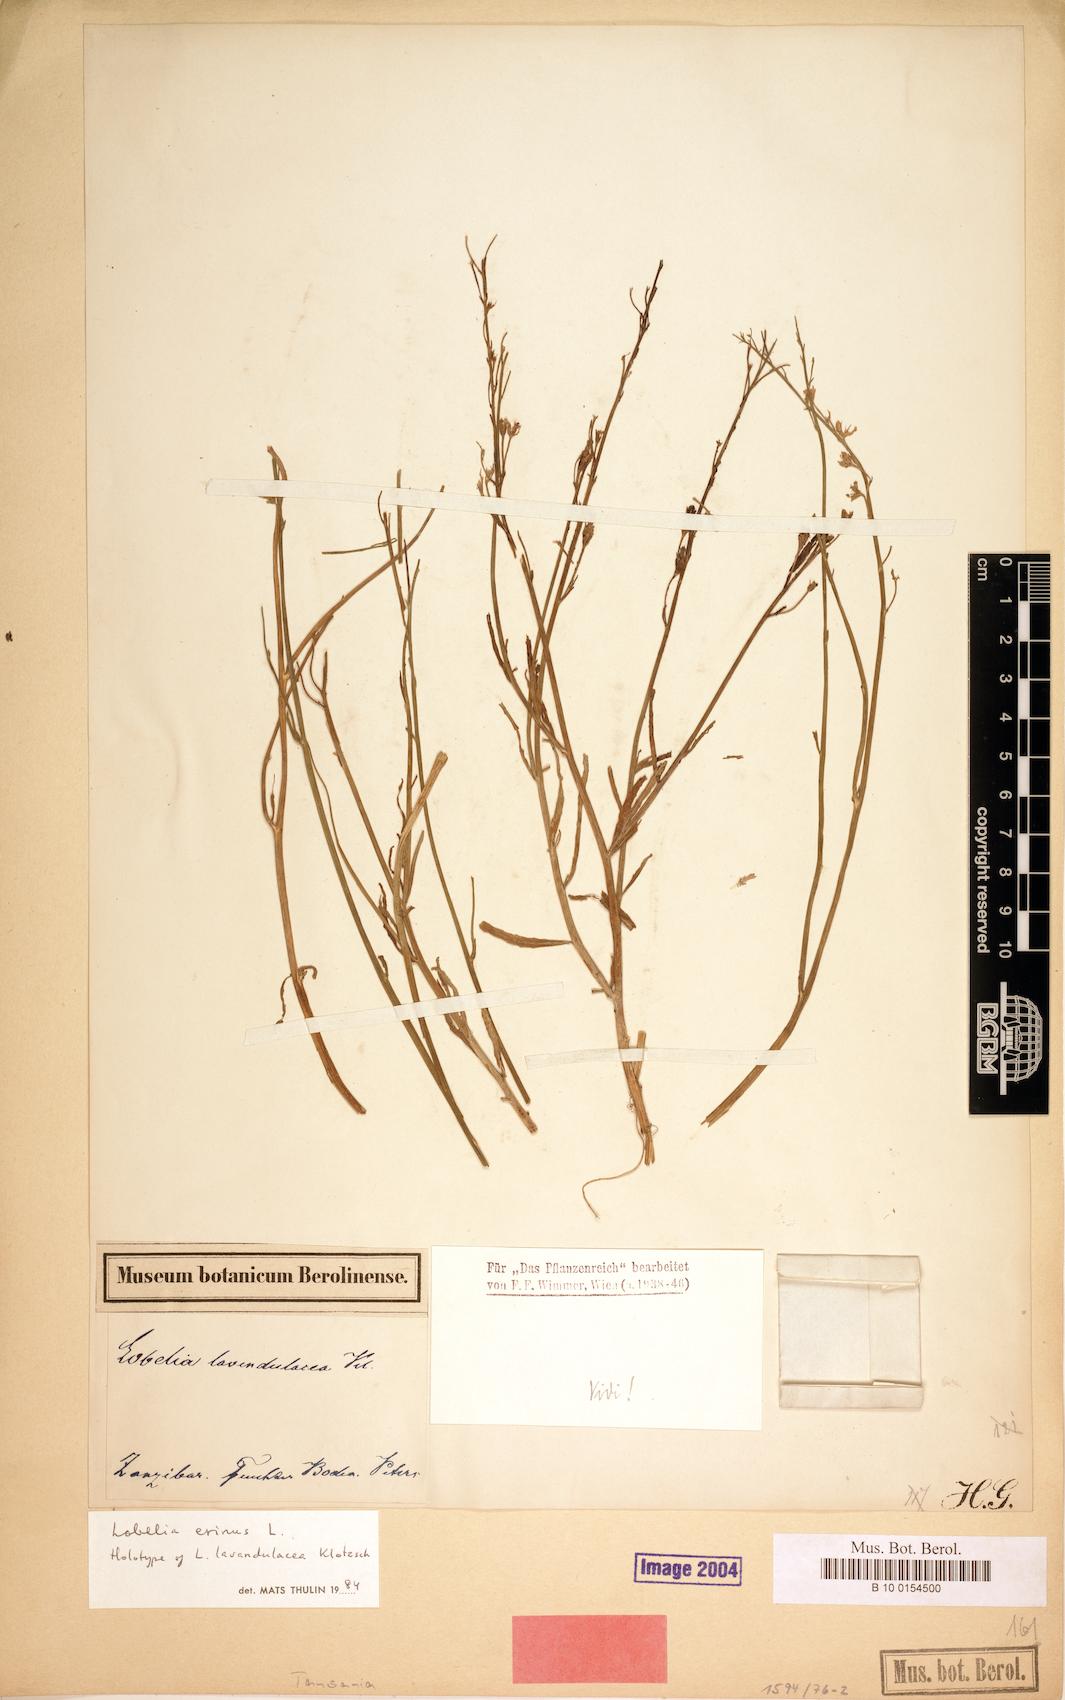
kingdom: Plantae
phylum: Tracheophyta
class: Magnoliopsida
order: Asterales
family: Campanulaceae
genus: Lobelia
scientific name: Lobelia erinus
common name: Edging lobelia
